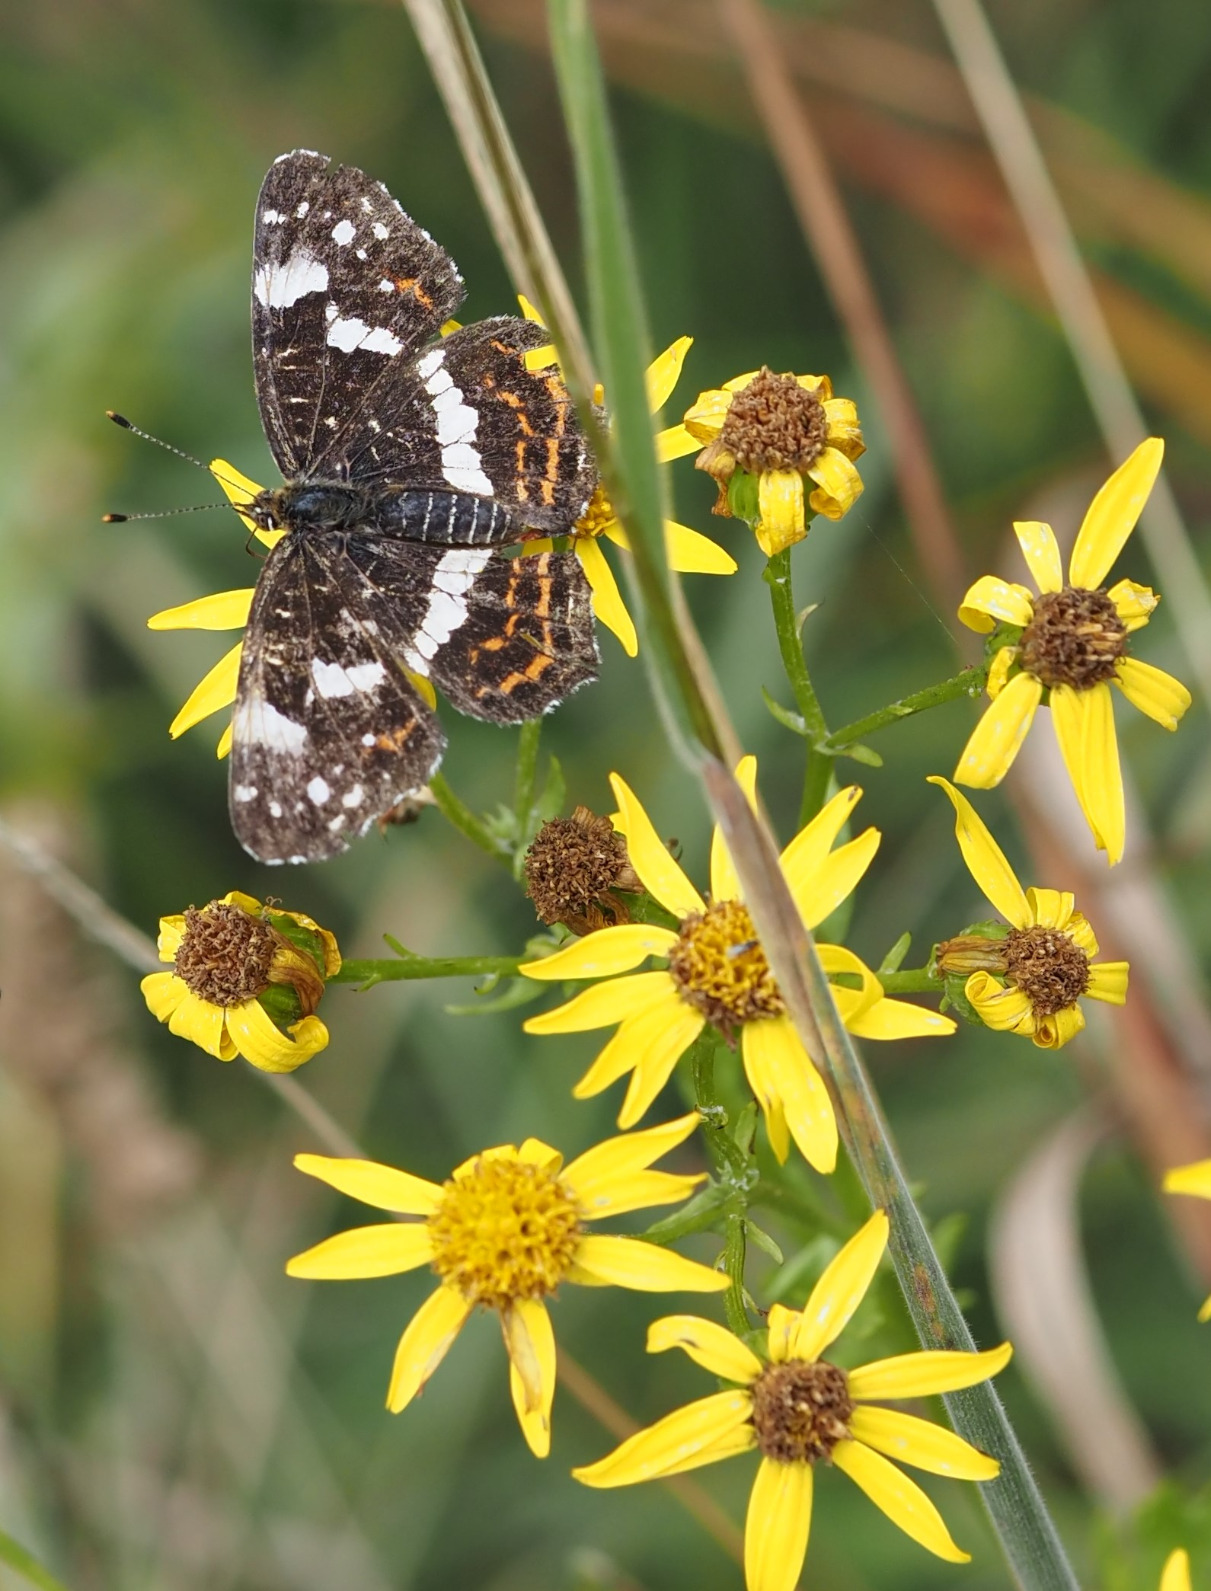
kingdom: Animalia
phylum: Arthropoda
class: Insecta
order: Lepidoptera
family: Nymphalidae
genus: Araschnia
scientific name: Araschnia levana
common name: Nældesommerfugl
